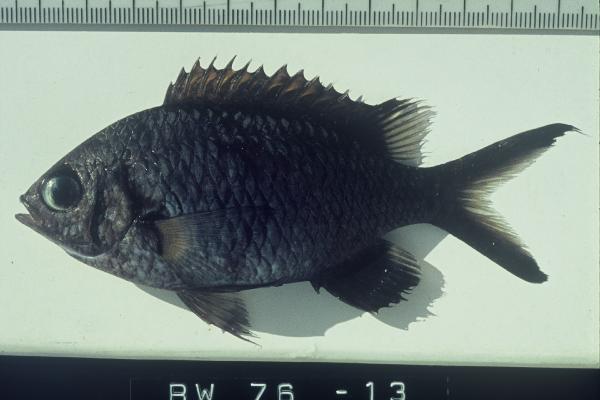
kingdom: Animalia
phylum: Chordata
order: Perciformes
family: Pomacentridae
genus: Chromis
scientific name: Chromis weberi
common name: Weber's chromis
